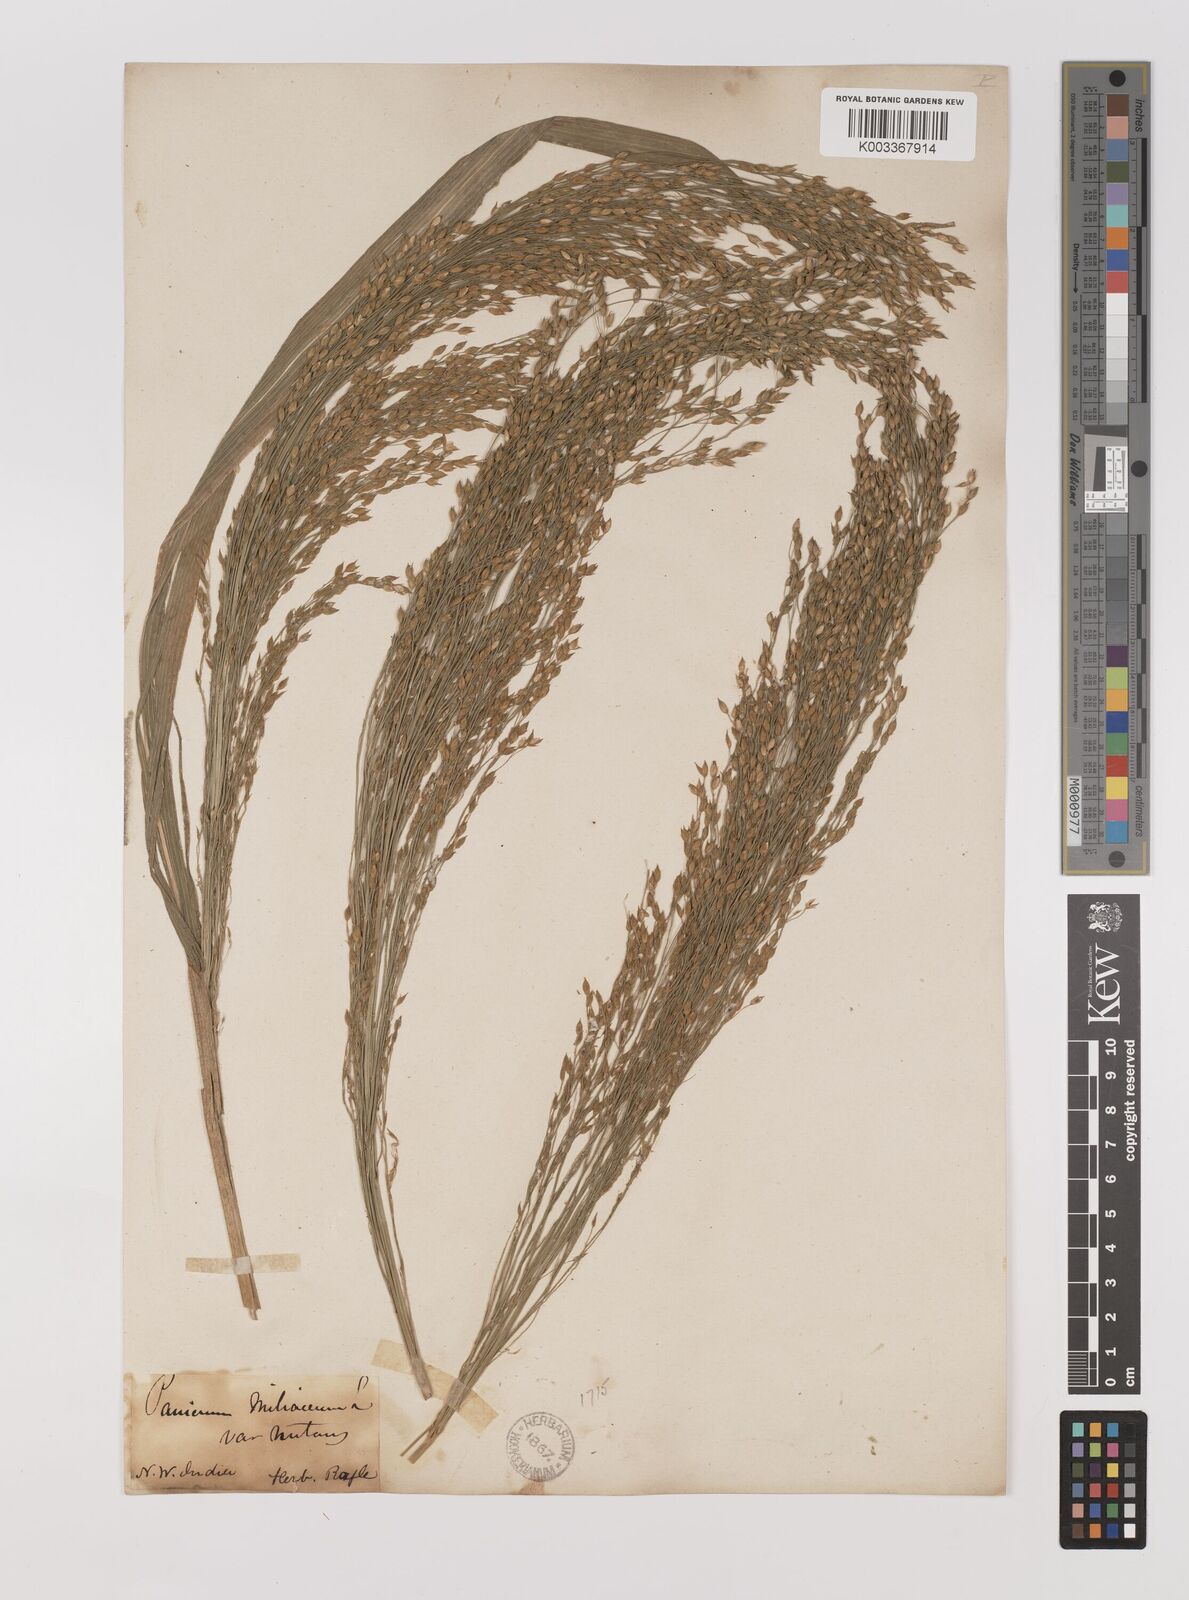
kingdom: Plantae
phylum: Tracheophyta
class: Liliopsida
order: Poales
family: Poaceae
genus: Panicum
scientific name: Panicum miliaceum
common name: Common millet
